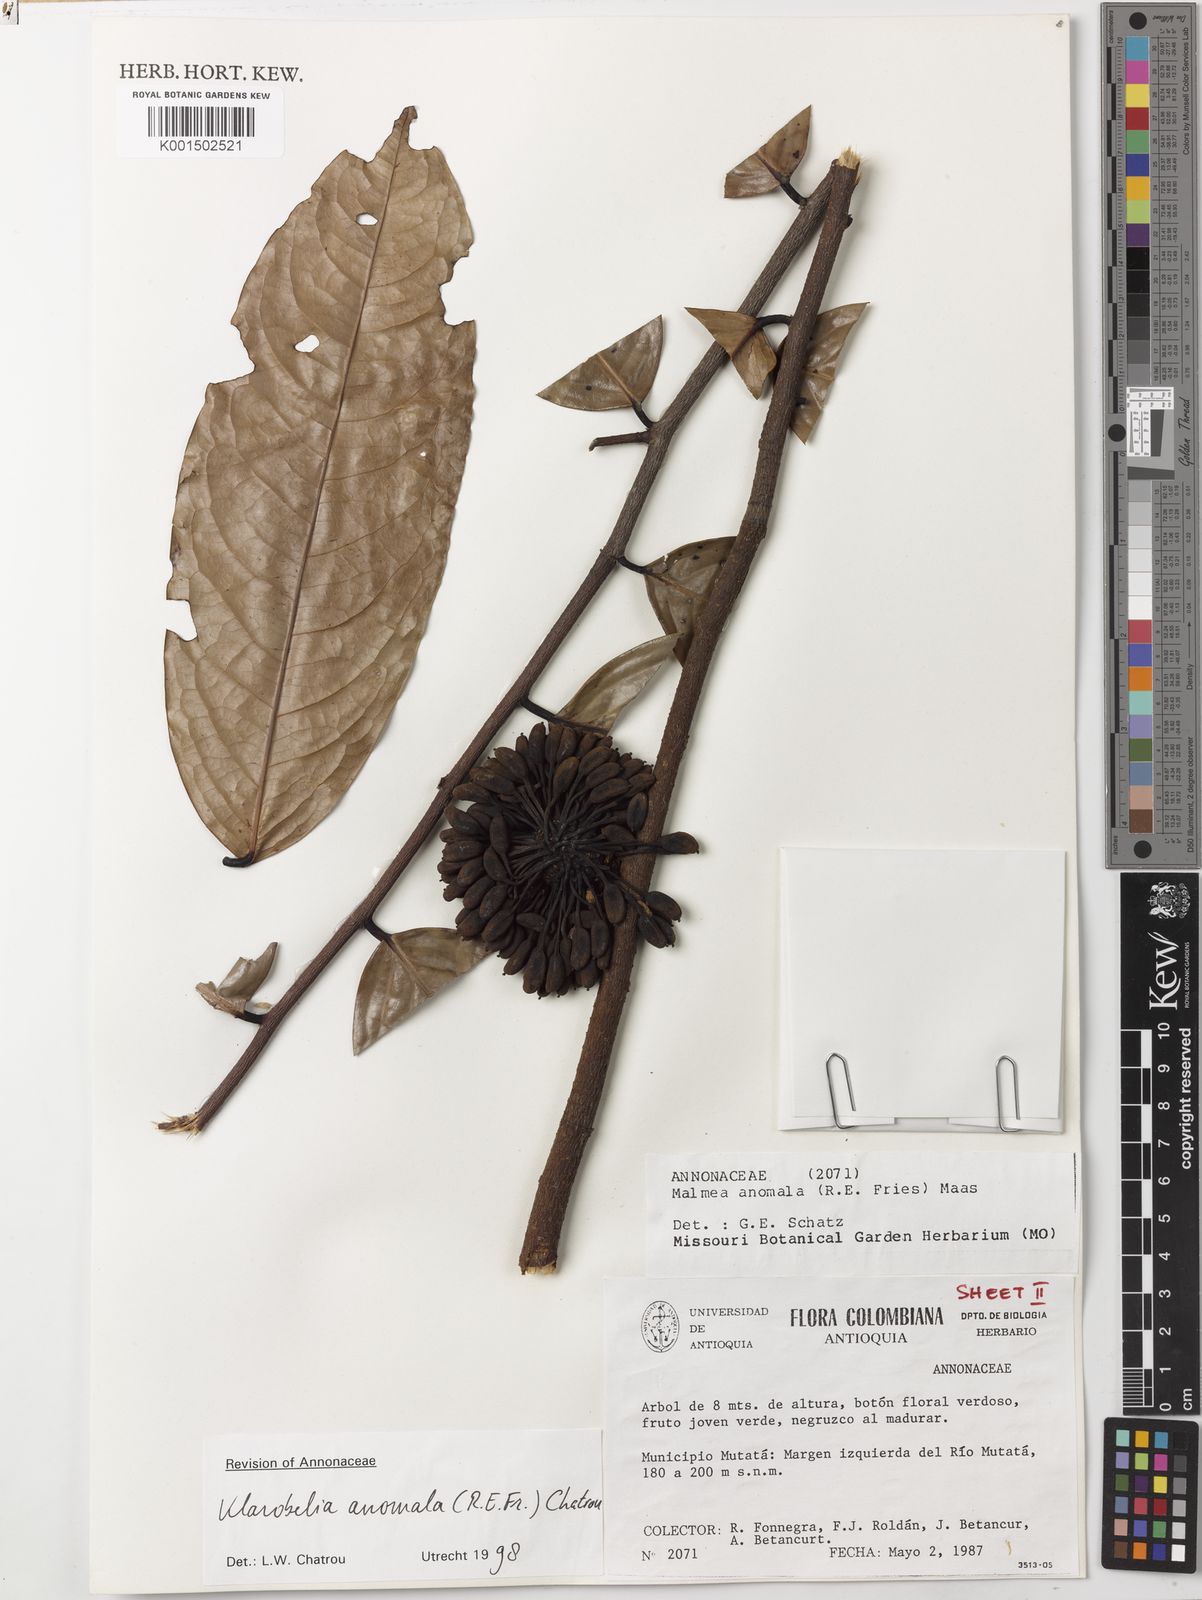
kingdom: Plantae
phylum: Tracheophyta
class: Magnoliopsida
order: Magnoliales
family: Annonaceae
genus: Klarobelia
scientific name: Klarobelia anomala
